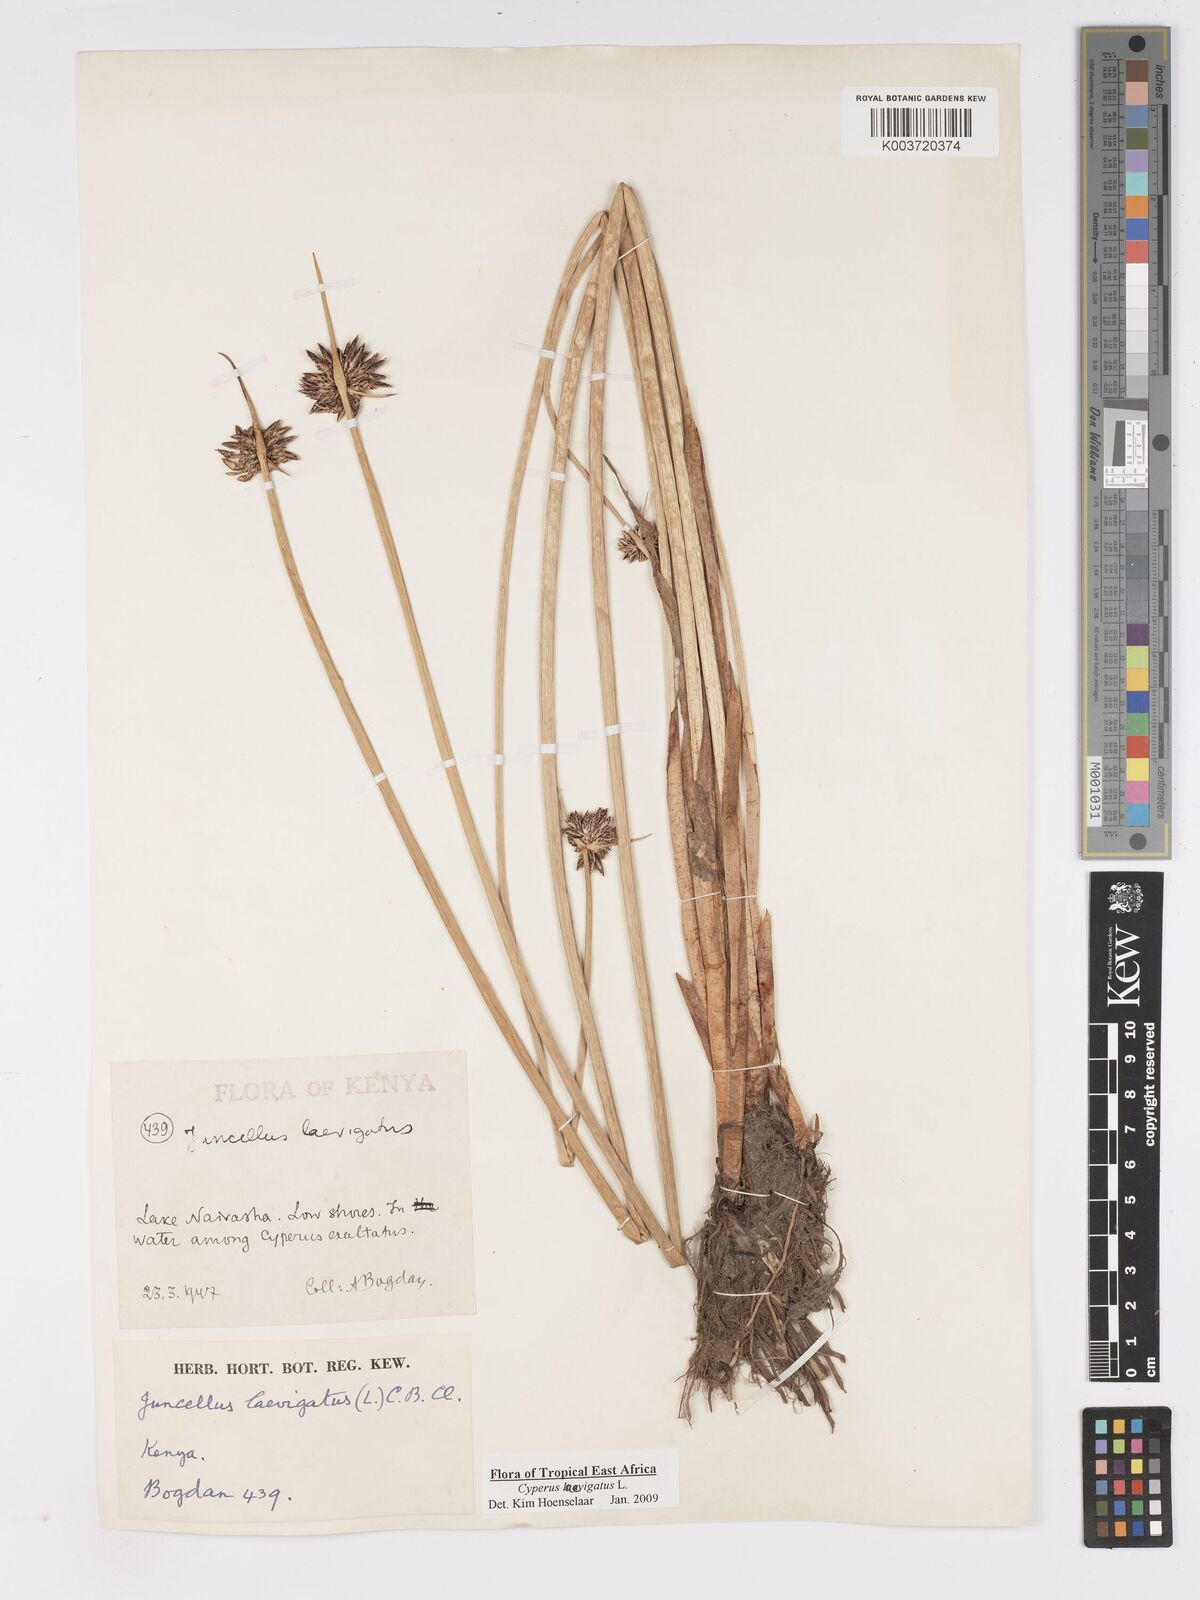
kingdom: Plantae
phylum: Tracheophyta
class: Liliopsida
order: Poales
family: Cyperaceae
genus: Cyperus
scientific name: Cyperus laevigatus
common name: Smooth flat sedge
